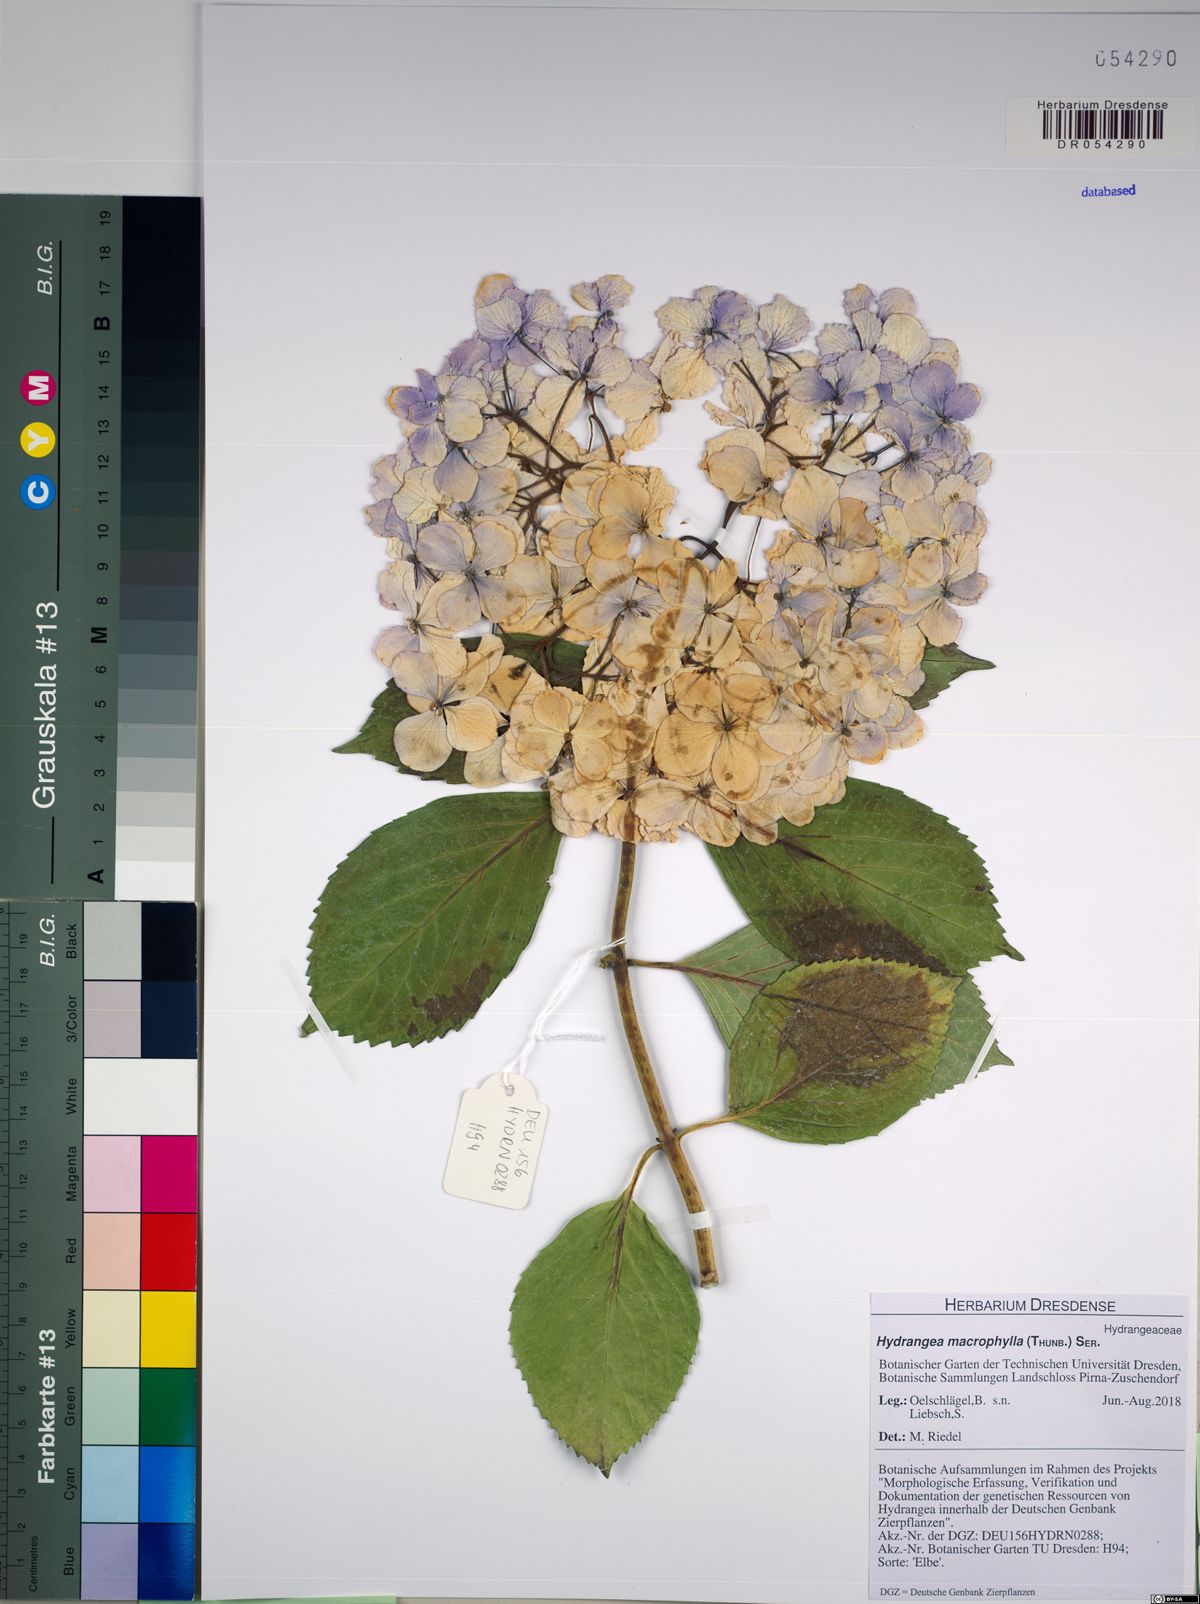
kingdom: Plantae
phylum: Tracheophyta
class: Magnoliopsida
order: Cornales
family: Hydrangeaceae
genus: Hydrangea
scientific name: Hydrangea macrophylla
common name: Hydrangea
